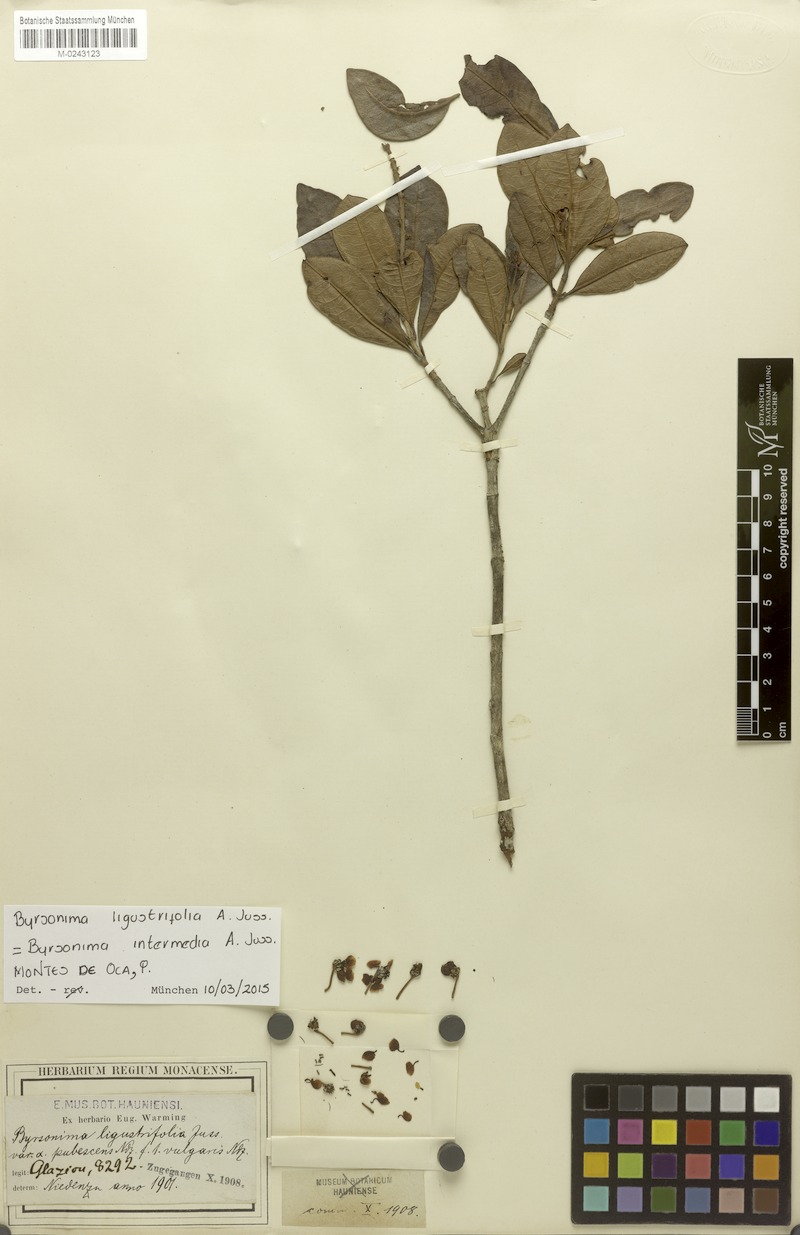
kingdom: Plantae
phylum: Tracheophyta
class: Magnoliopsida
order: Malpighiales
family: Malpighiaceae
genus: Byrsonima
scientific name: Byrsonima ligustrifolia
